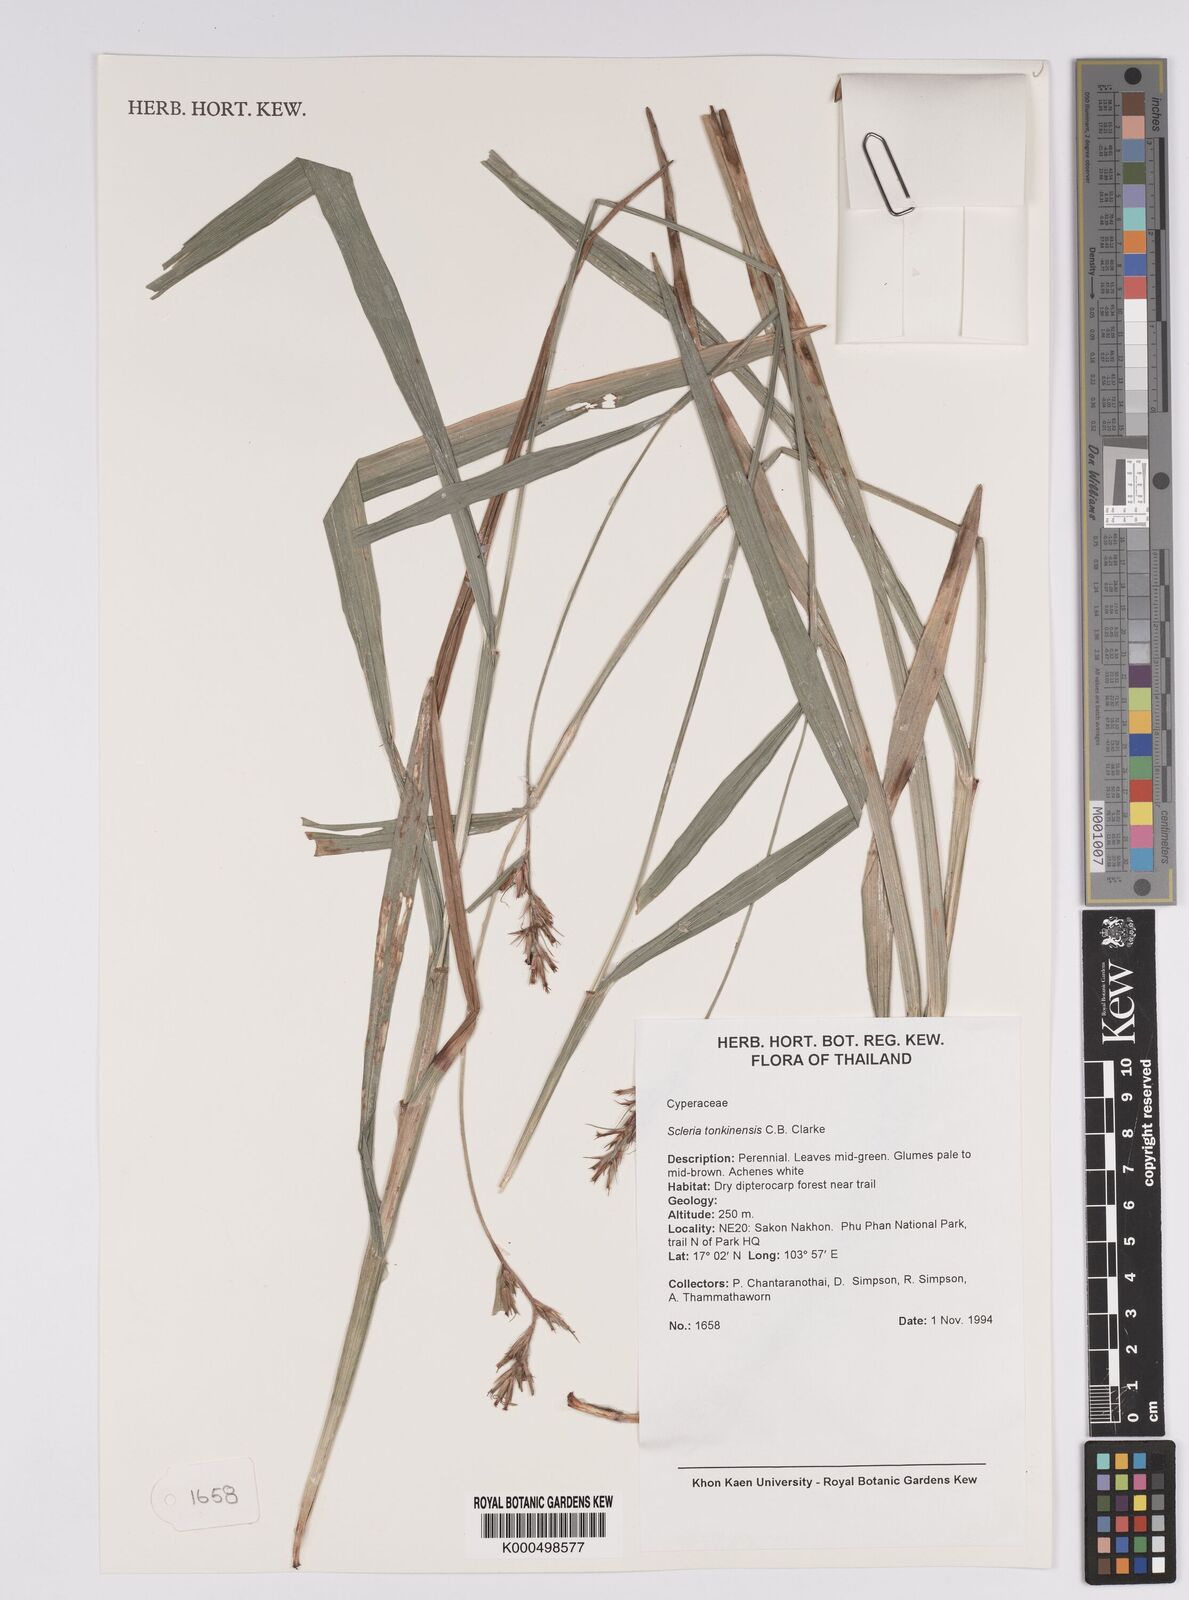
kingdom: Plantae
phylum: Tracheophyta
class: Liliopsida
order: Poales
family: Cyperaceae
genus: Scleria
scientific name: Scleria tonkinensis
